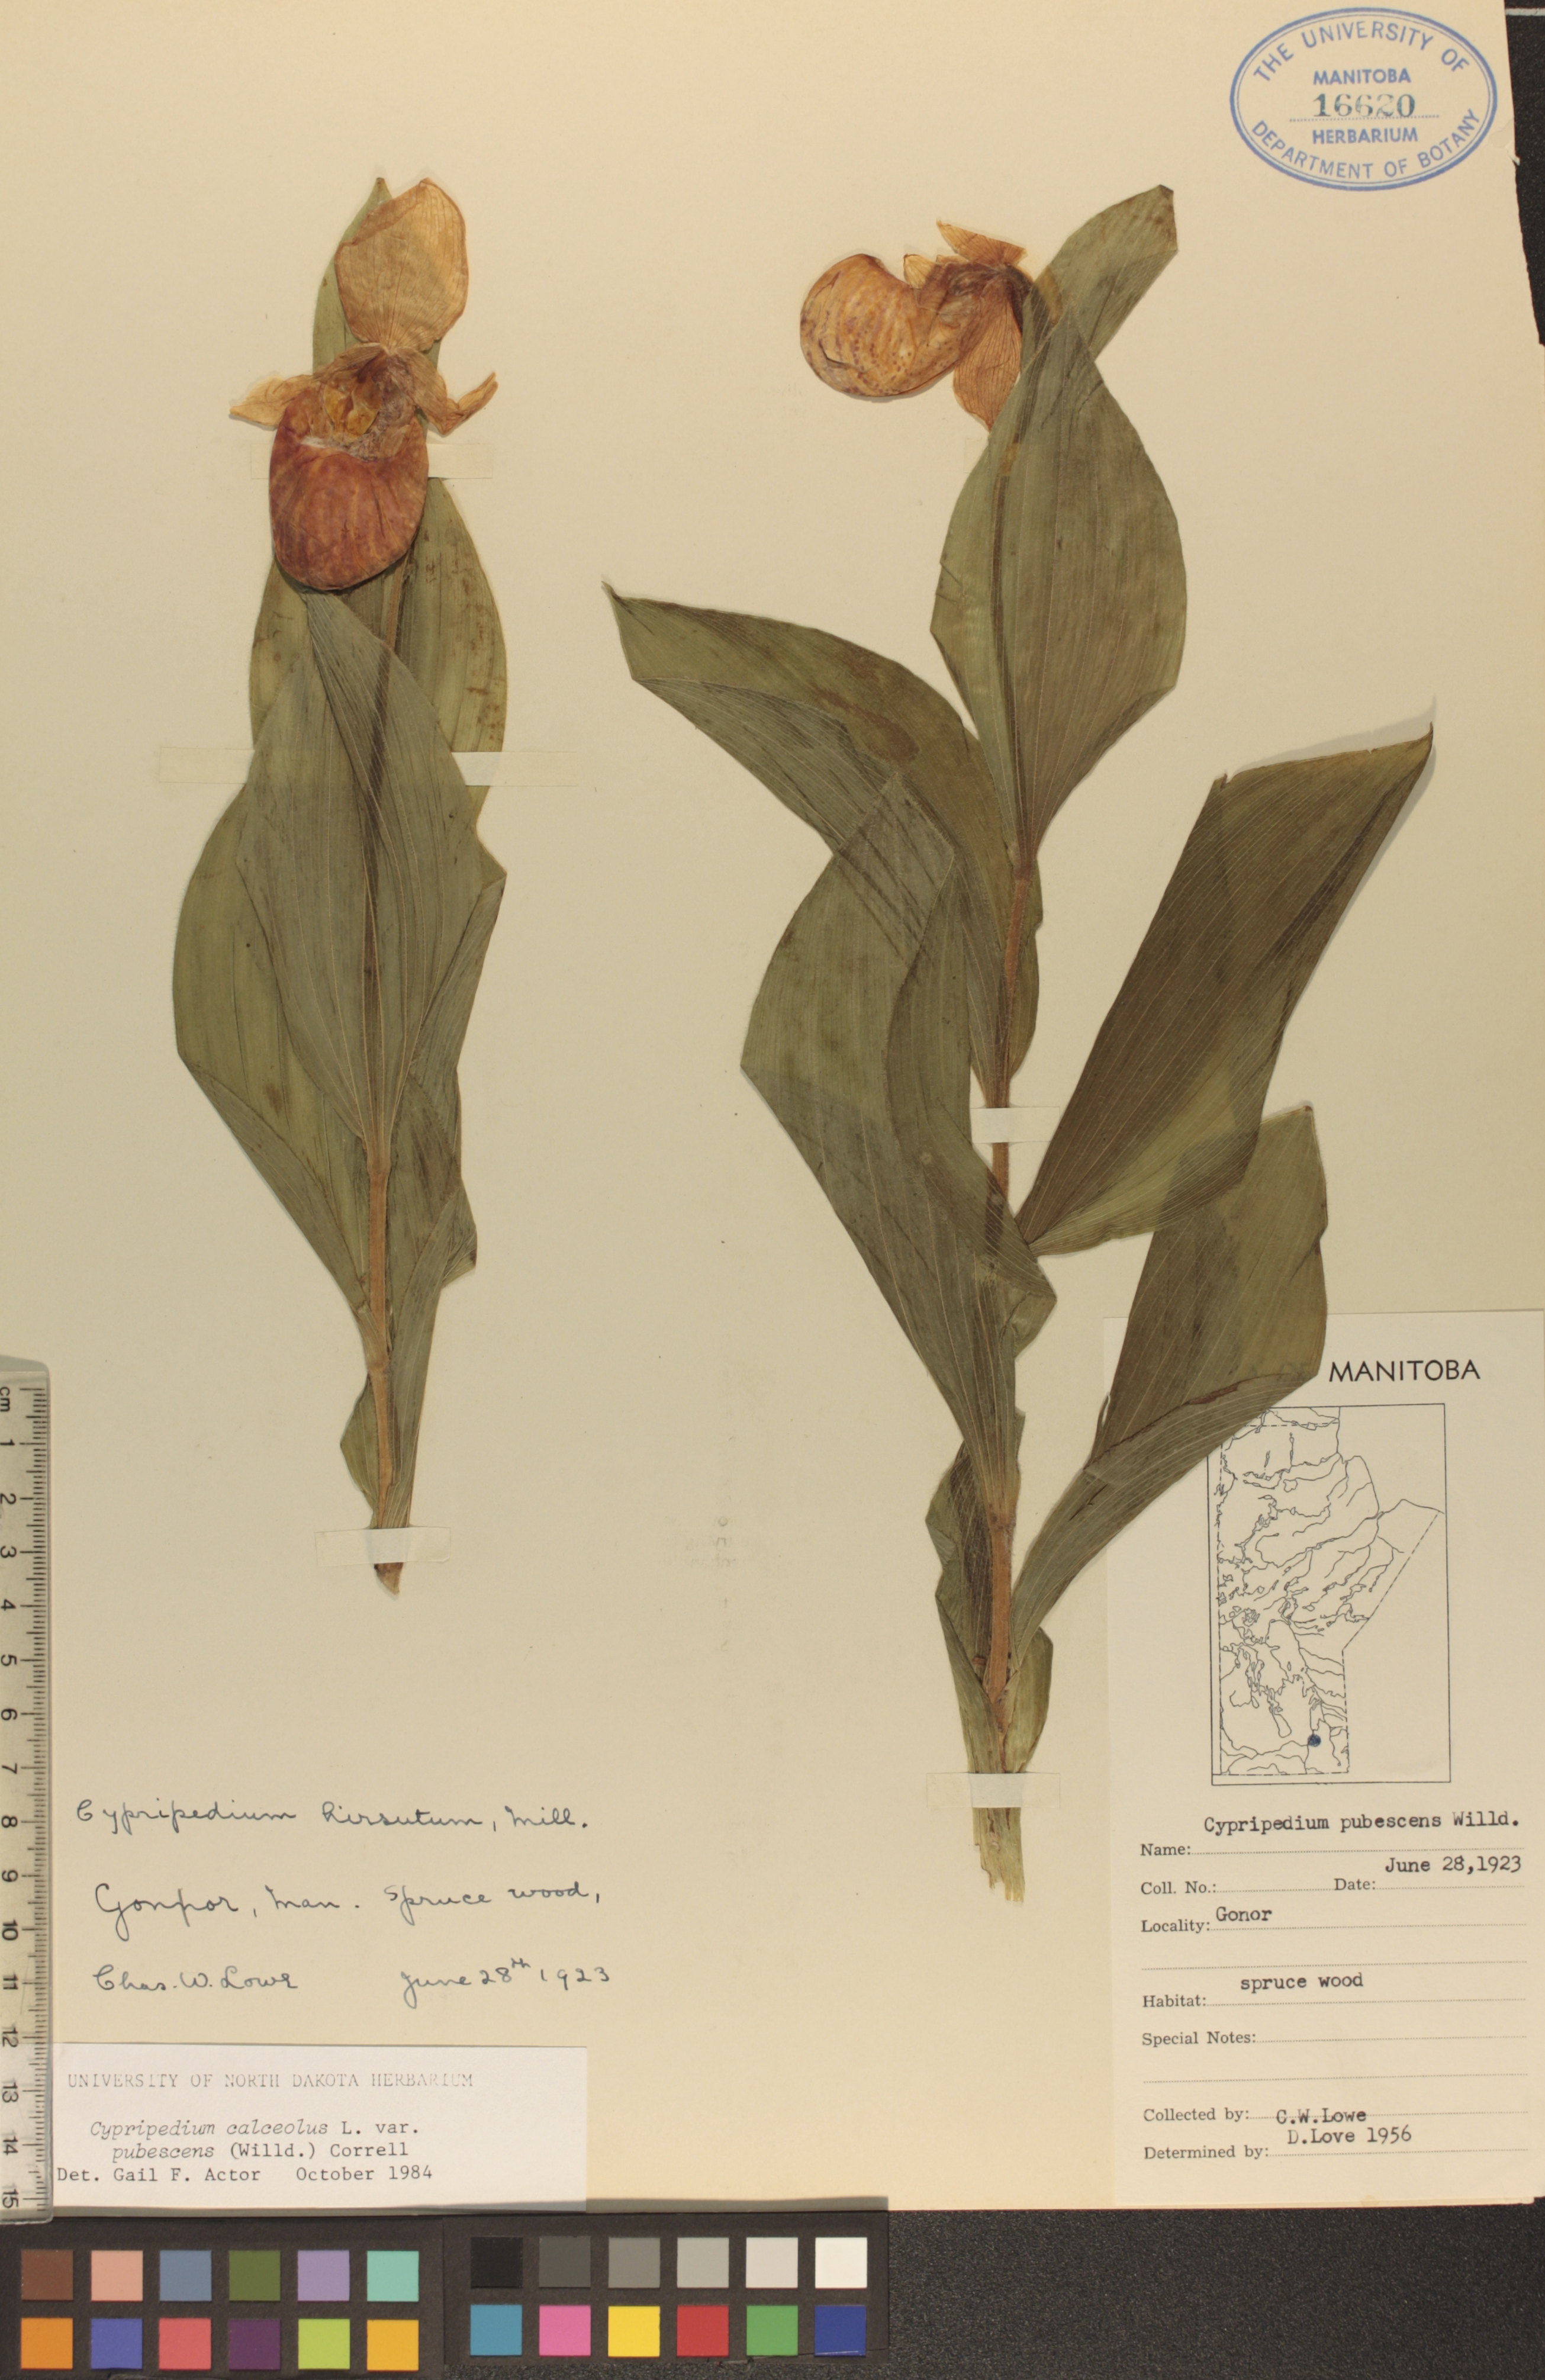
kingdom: Plantae
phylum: Tracheophyta
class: Liliopsida
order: Asparagales
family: Orchidaceae
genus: Cypripedium
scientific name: Cypripedium parviflorum
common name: American yellow lady's-slipper
